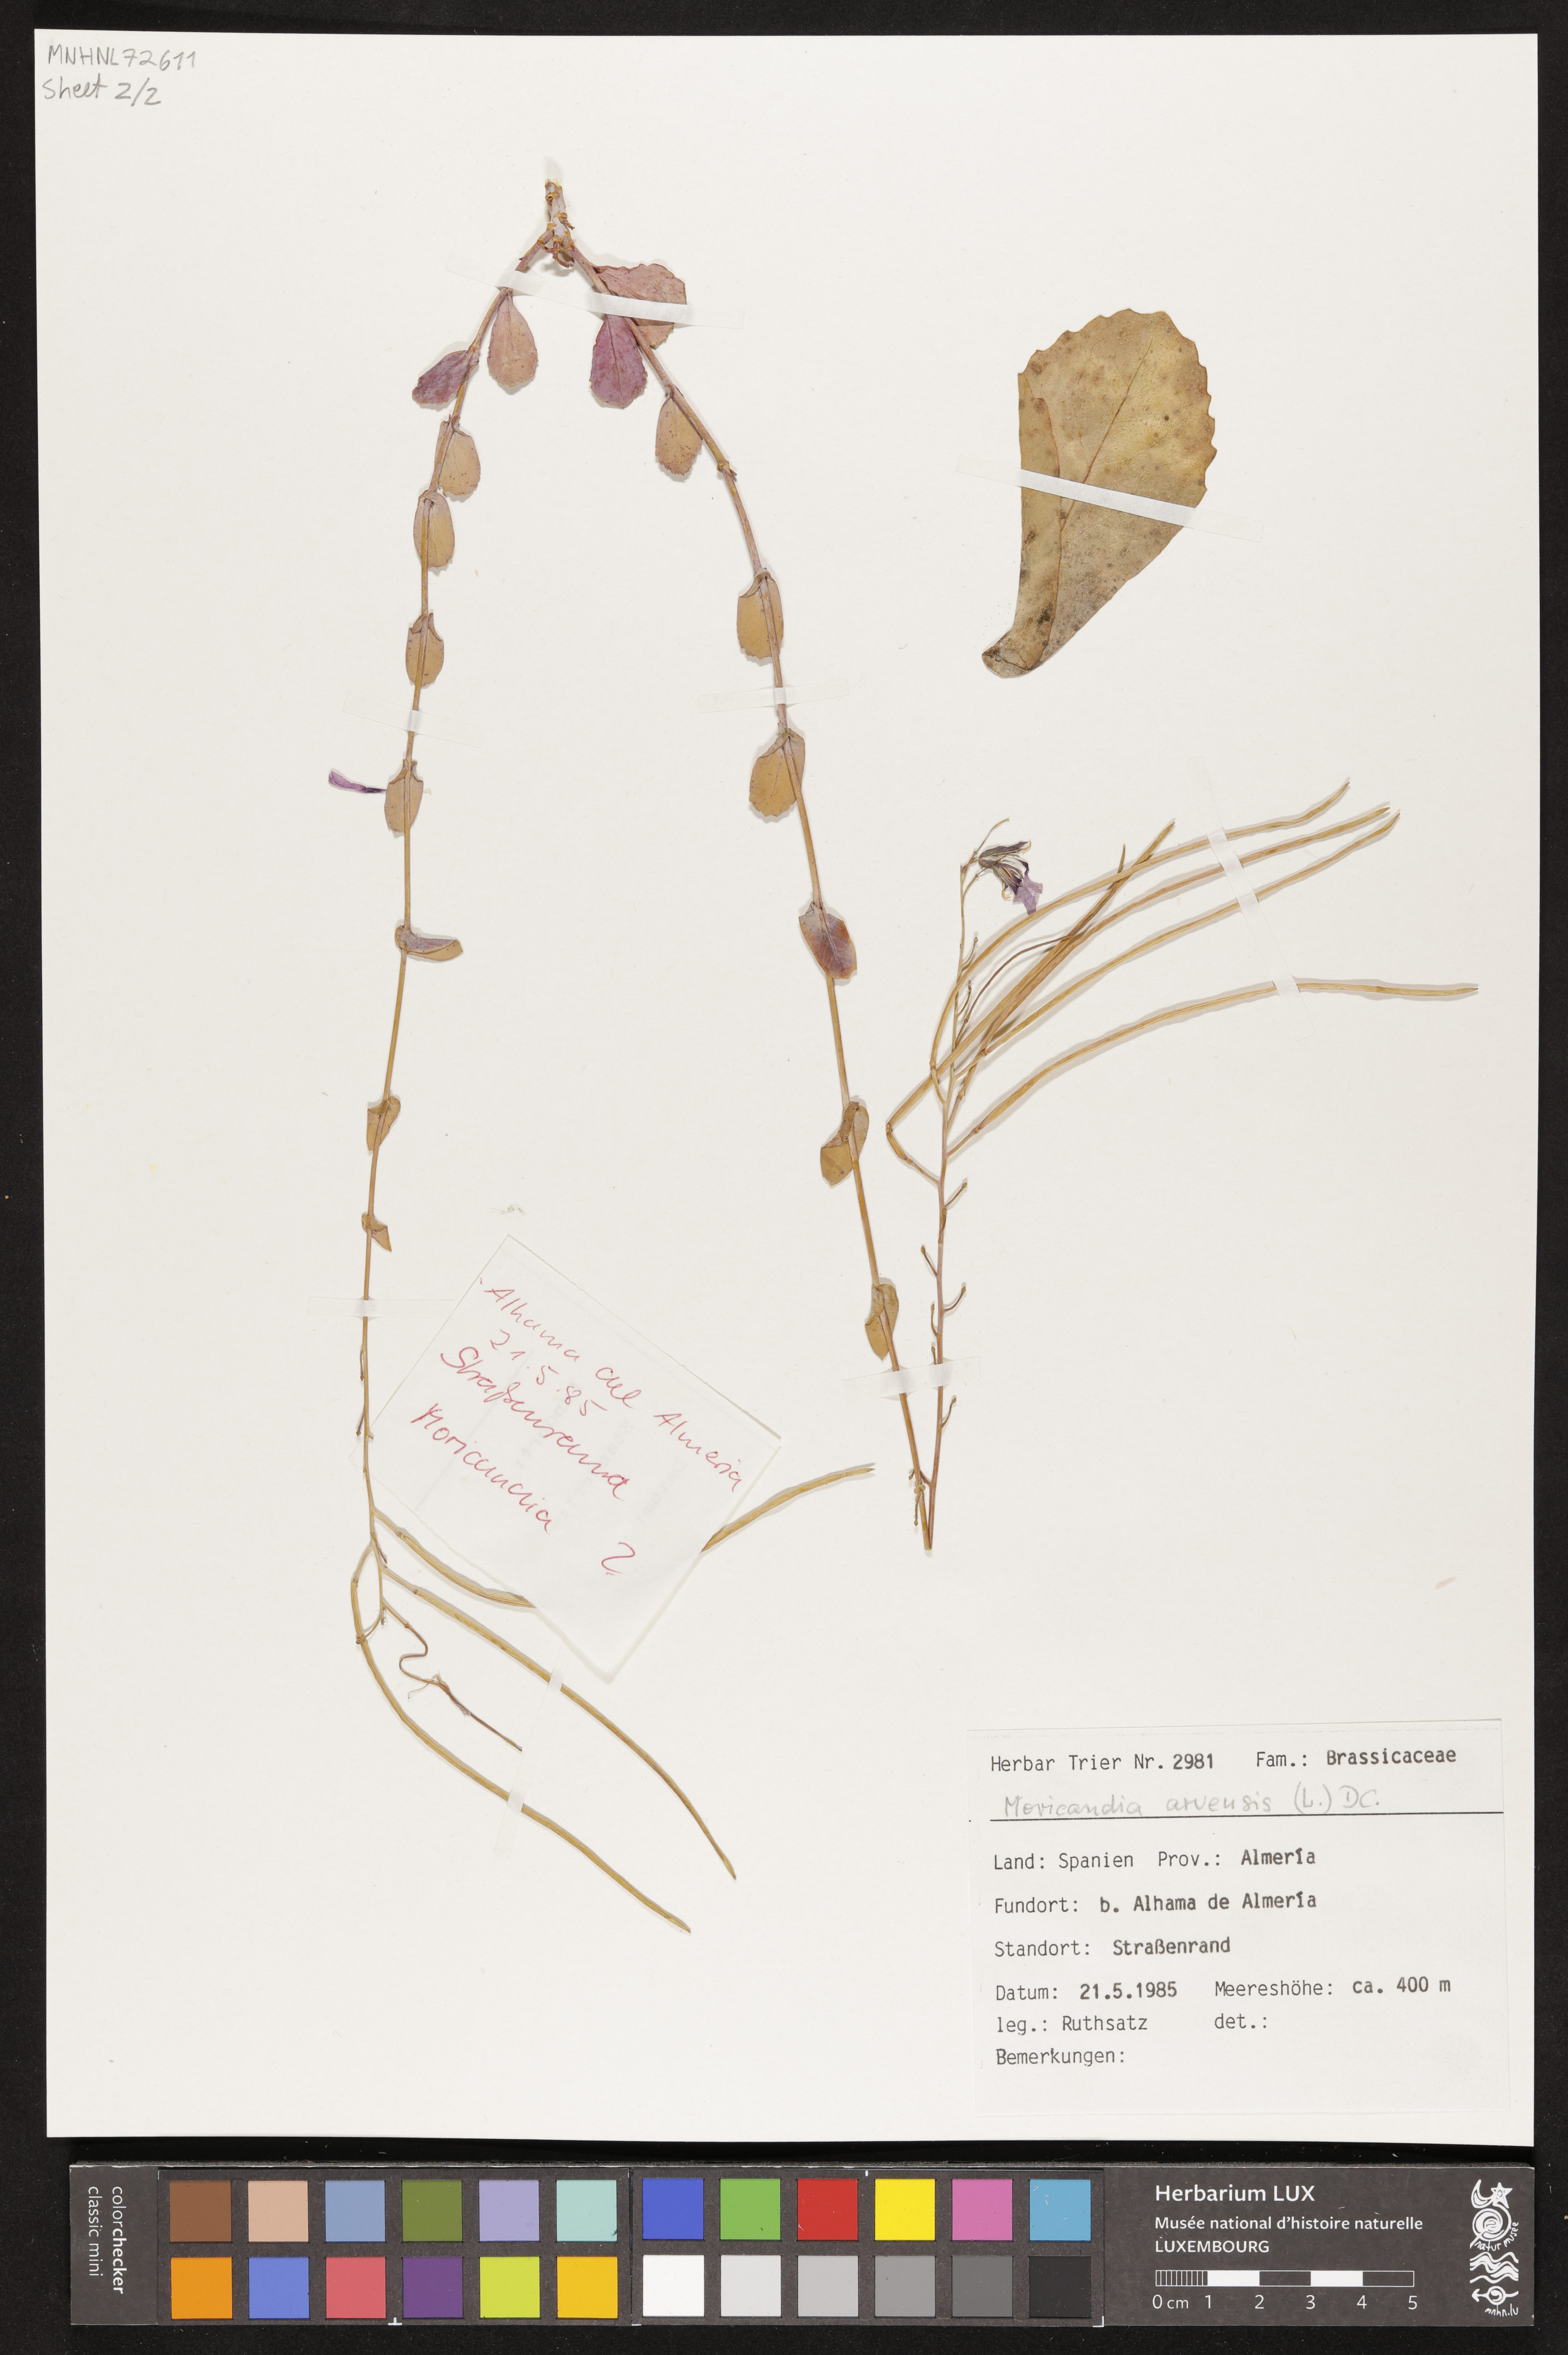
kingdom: Plantae
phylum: Tracheophyta
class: Magnoliopsida
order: Brassicales
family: Brassicaceae
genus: Moricandia
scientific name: Moricandia arvensis
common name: Purple mistress
